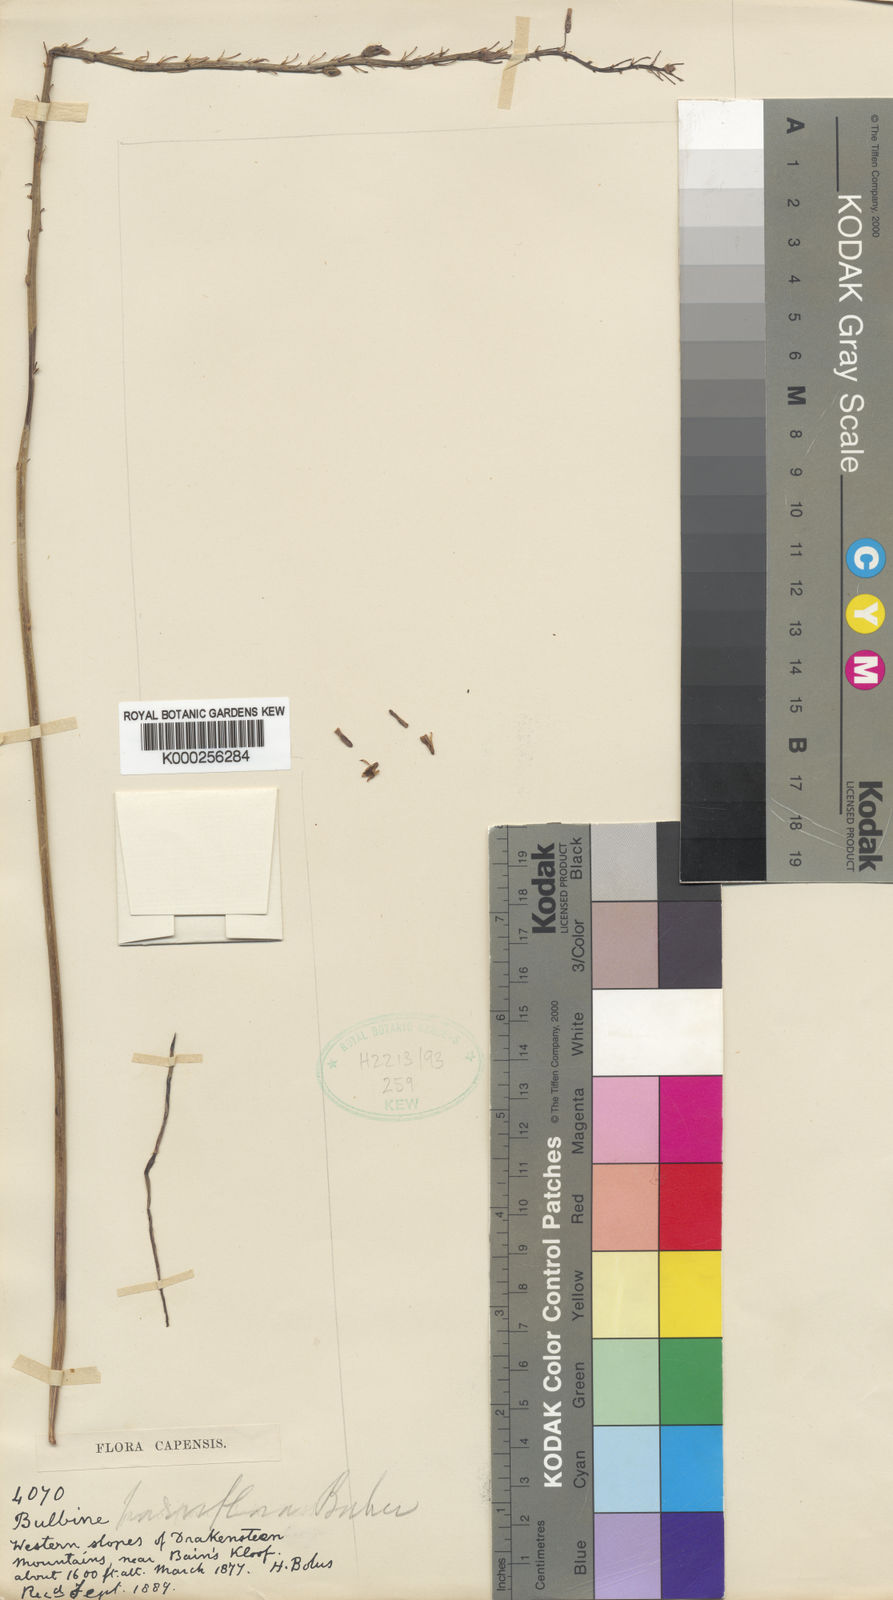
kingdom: Plantae
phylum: Tracheophyta
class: Liliopsida
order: Asparagales
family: Asphodelaceae
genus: Bulbine
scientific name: Bulbine cepacea
